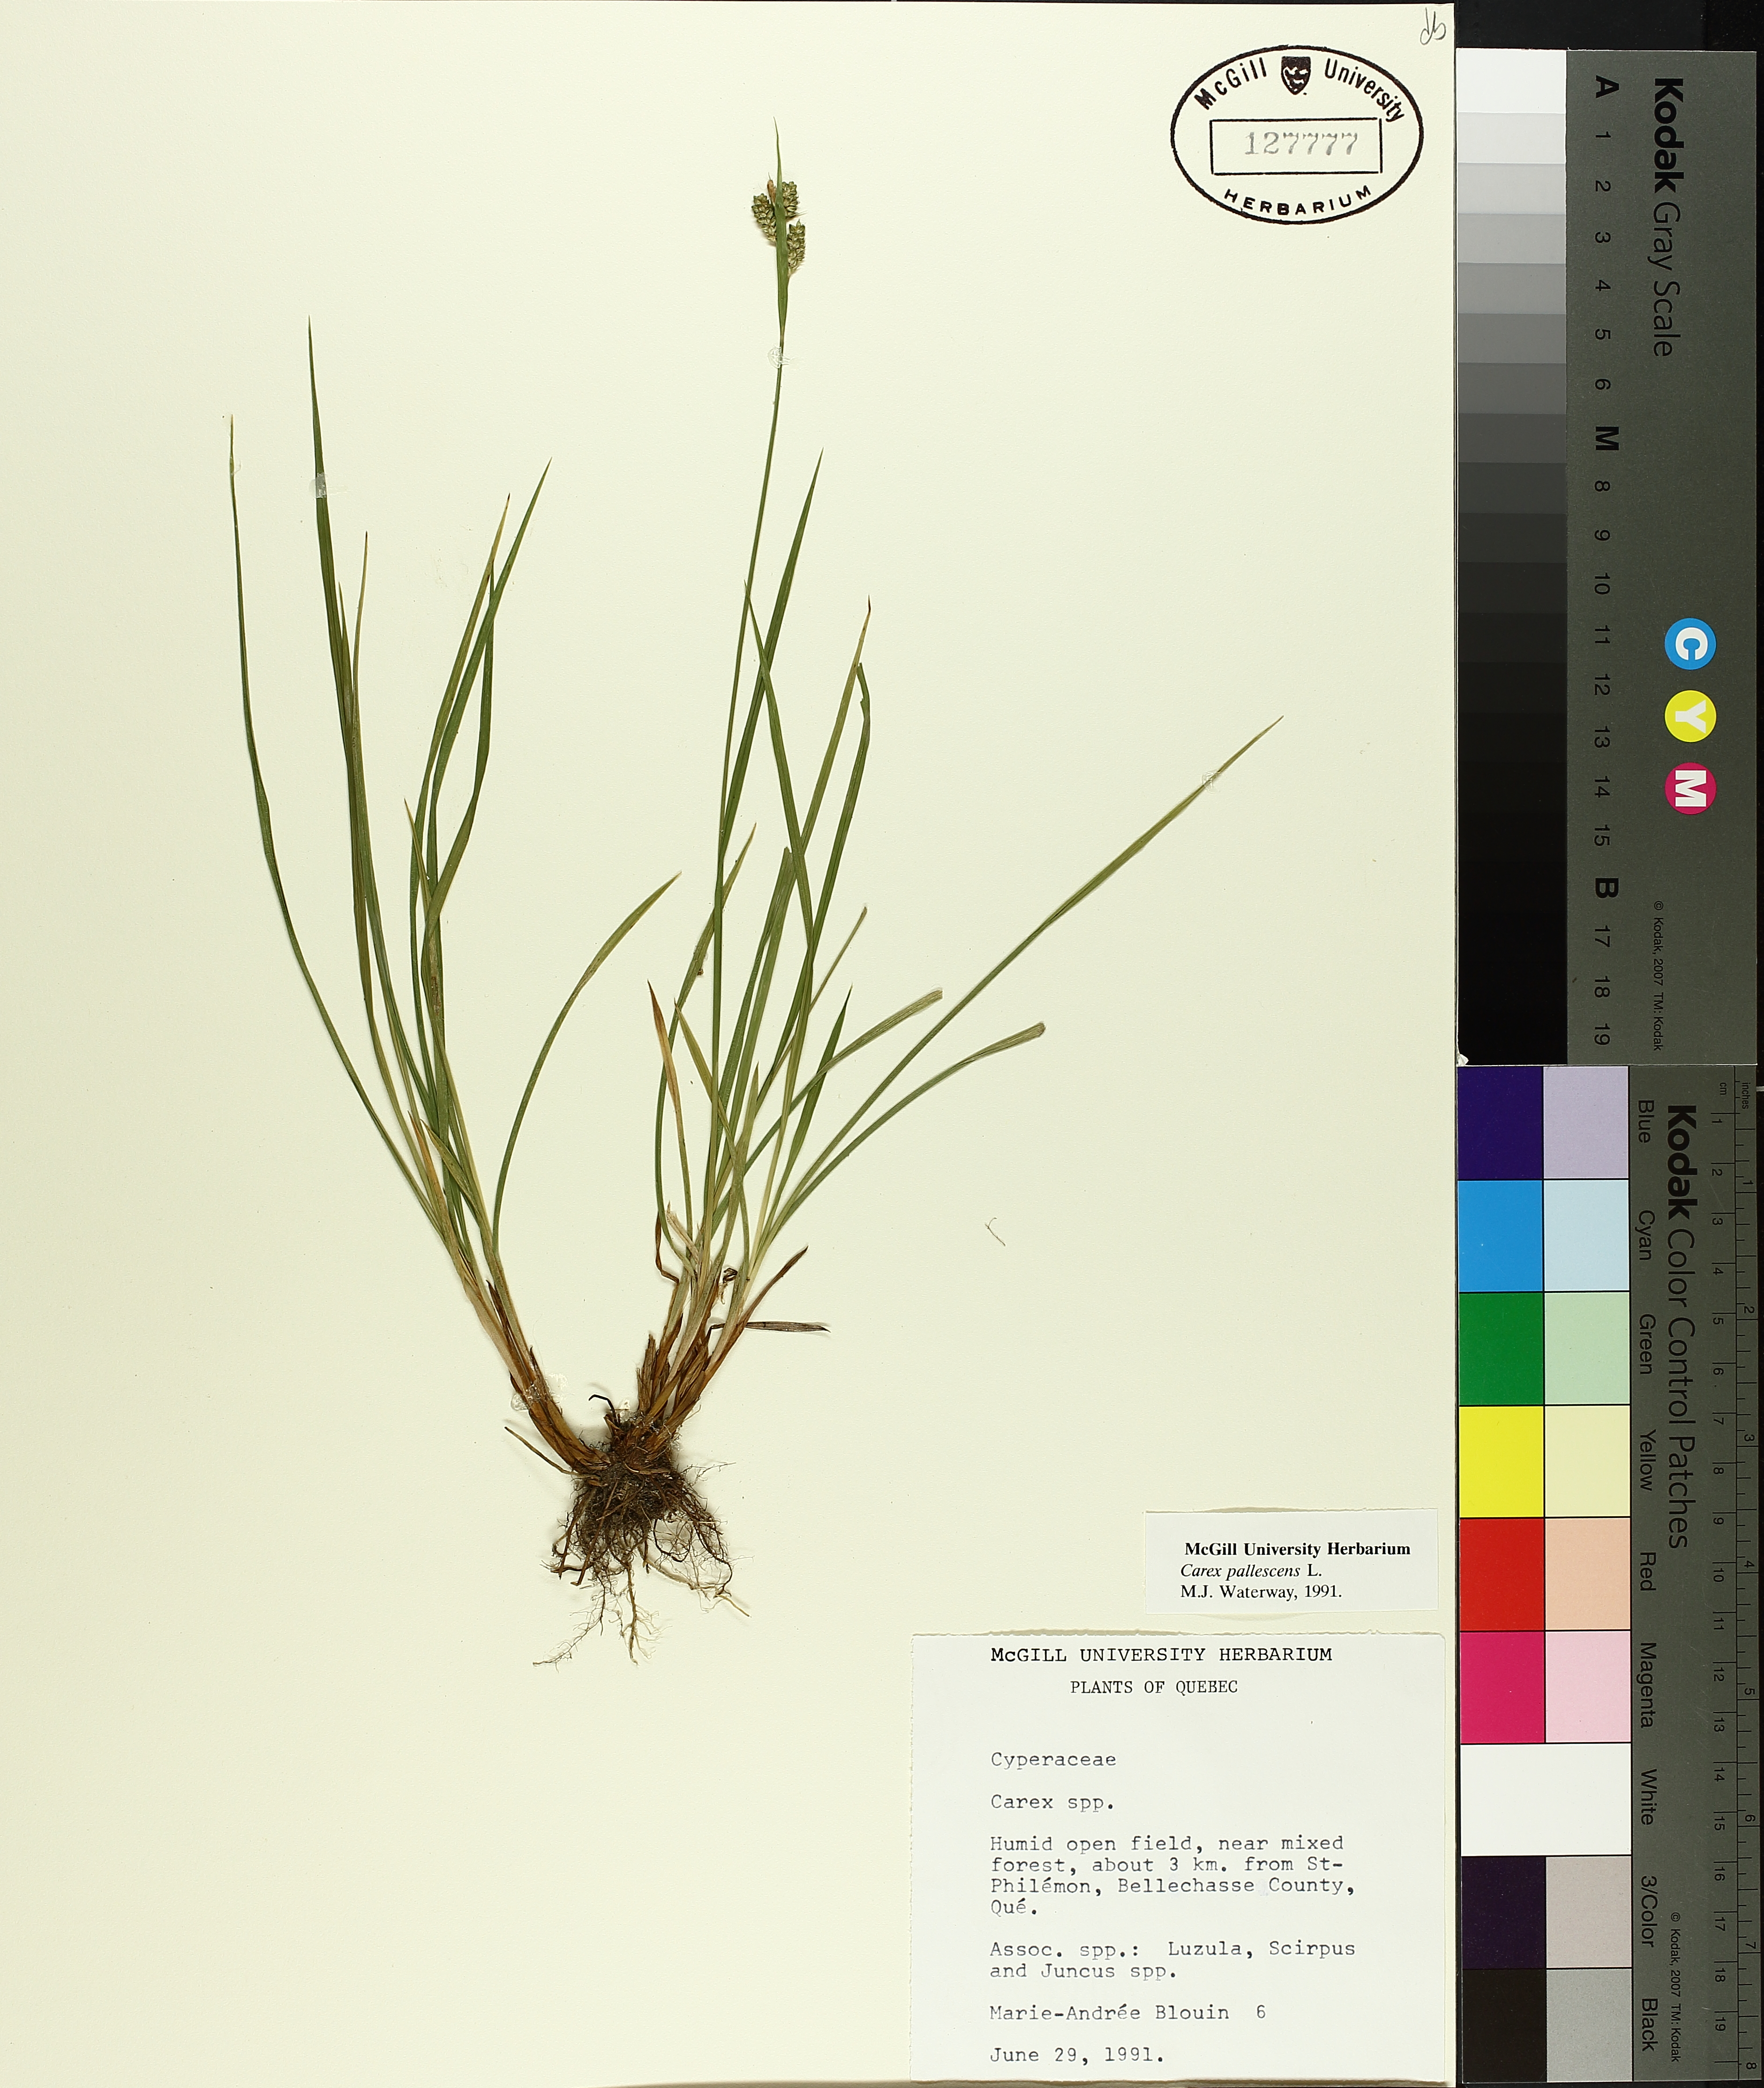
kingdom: Plantae
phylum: Tracheophyta
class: Liliopsida
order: Poales
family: Cyperaceae
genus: Carex
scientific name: Carex pallescens
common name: Pale sedge
